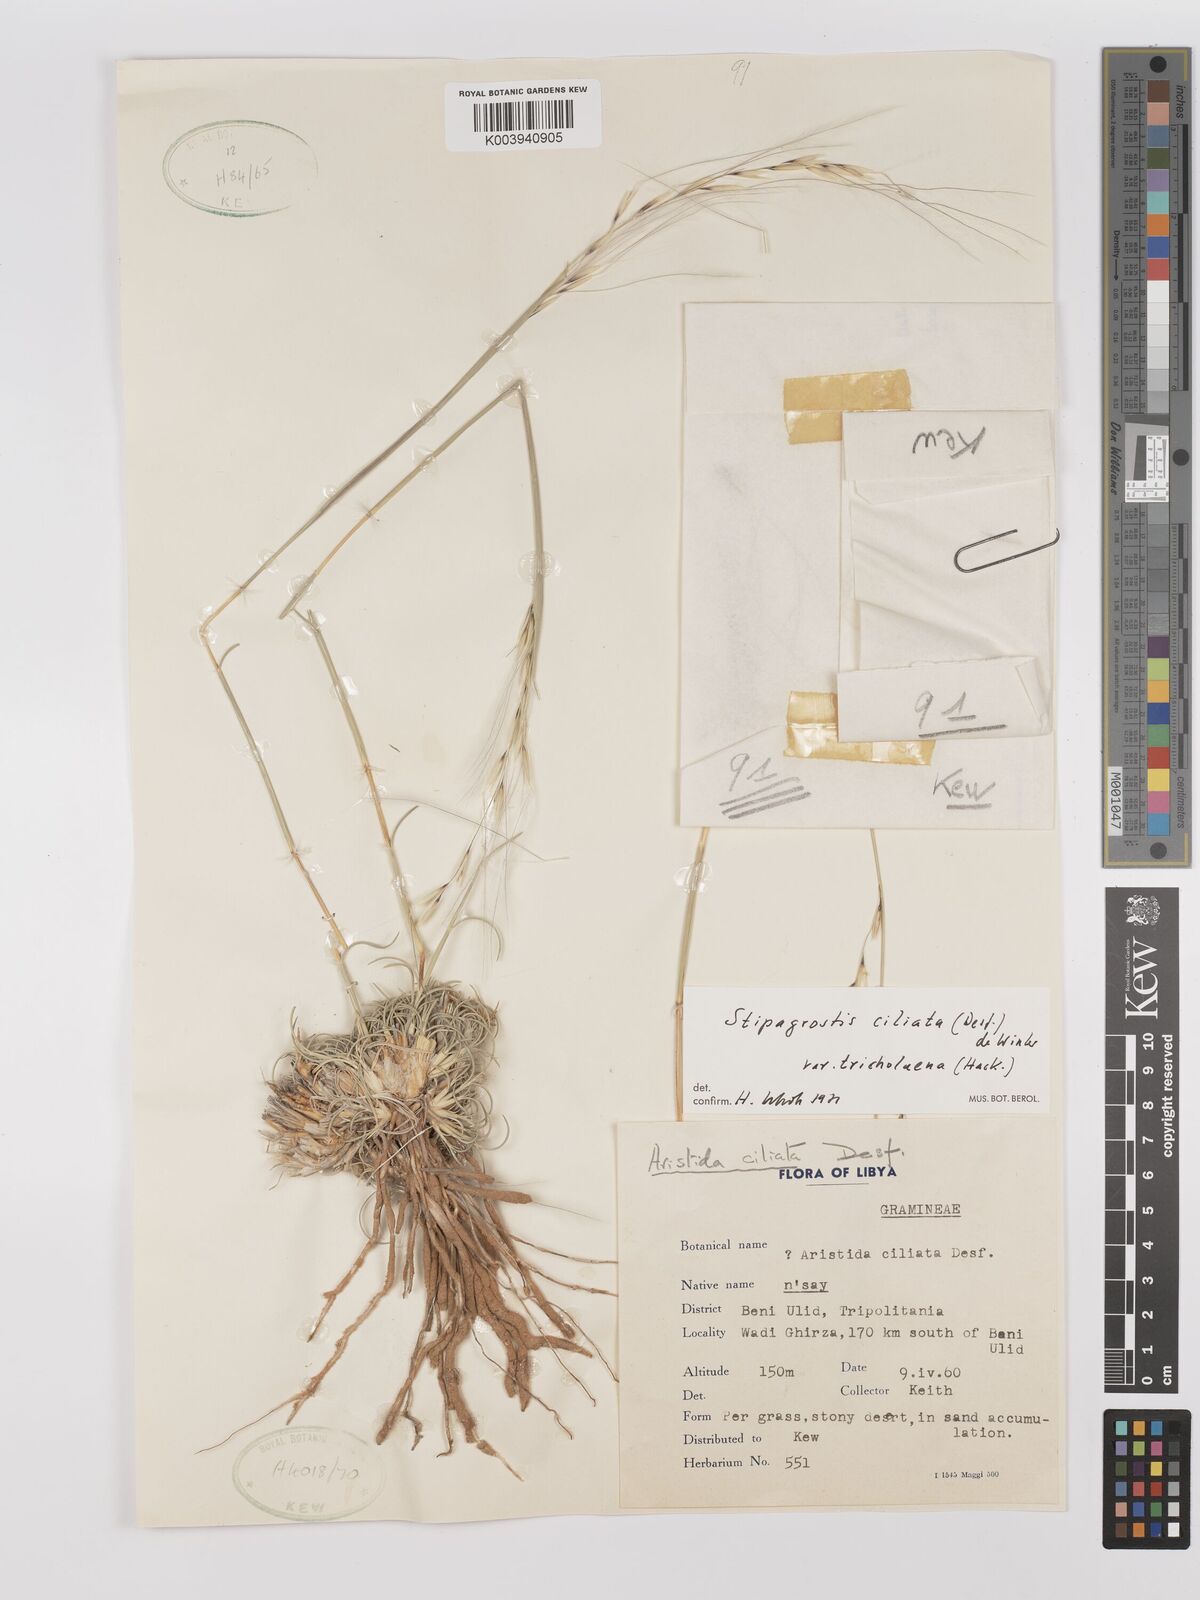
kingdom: Plantae
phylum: Tracheophyta
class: Liliopsida
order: Poales
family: Poaceae
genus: Stipagrostis
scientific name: Stipagrostis ciliata
